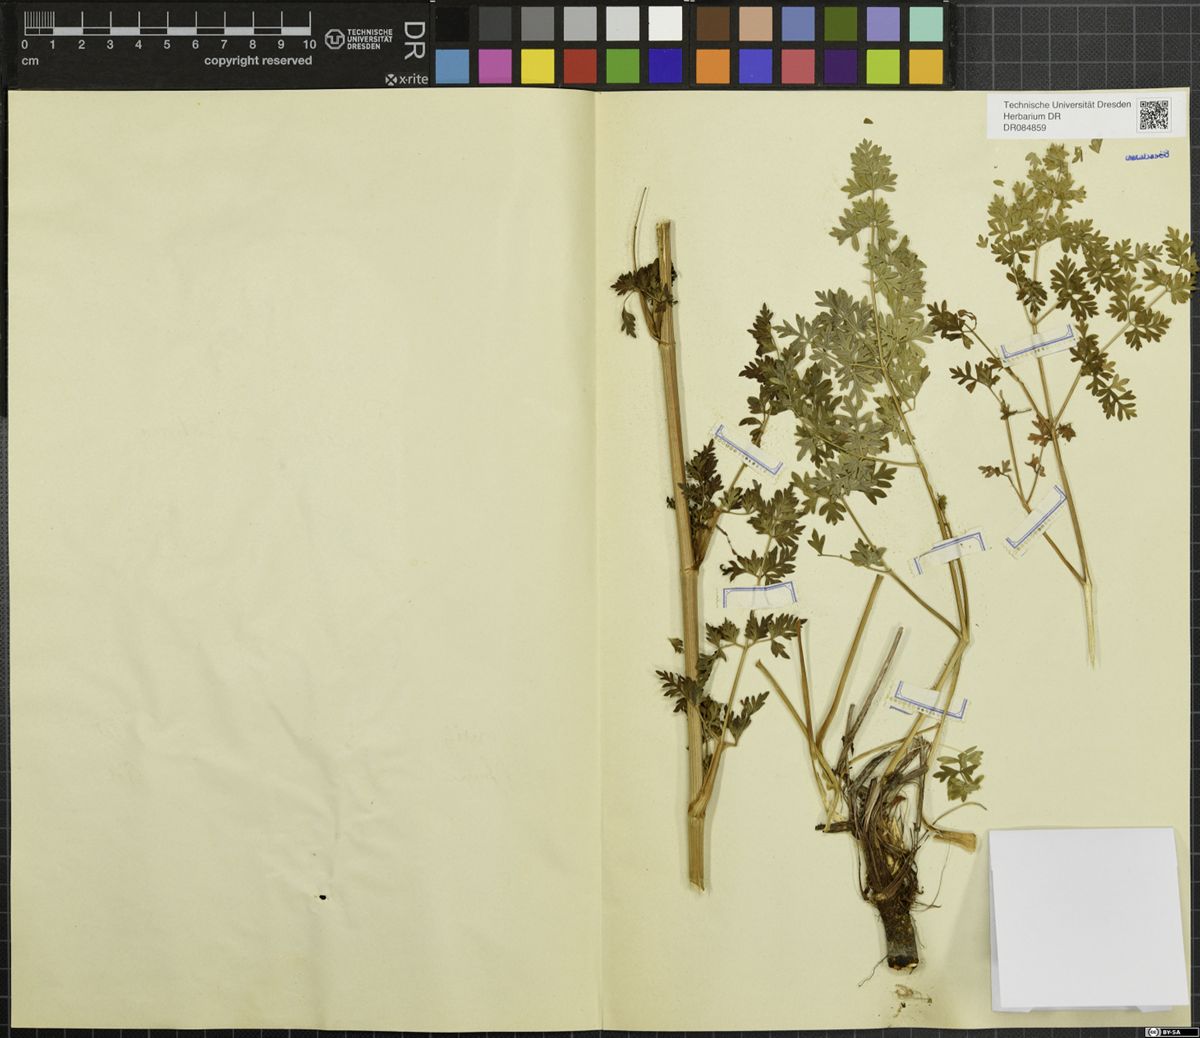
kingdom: Plantae
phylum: Tracheophyta
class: Magnoliopsida
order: Apiales
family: Apiaceae
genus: Xanthoselinum
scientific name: Xanthoselinum alsaticum
